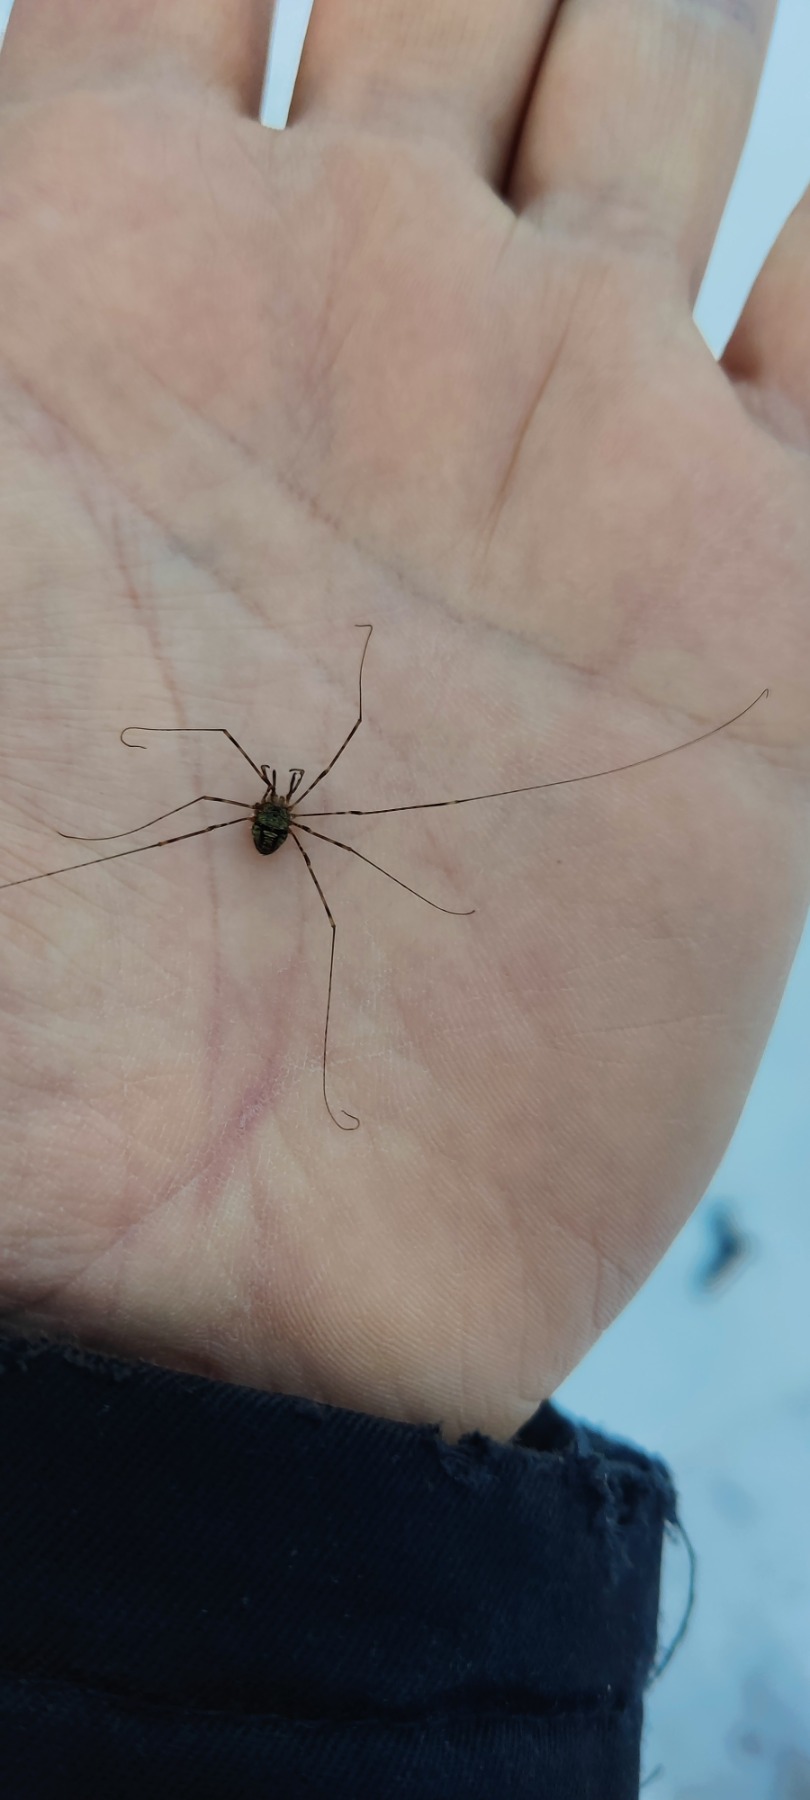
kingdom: Animalia
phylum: Arthropoda
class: Arachnida
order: Opiliones
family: Phalangiidae
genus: Dicranopalpus
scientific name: Dicranopalpus ramosus
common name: Gaffelmejer
